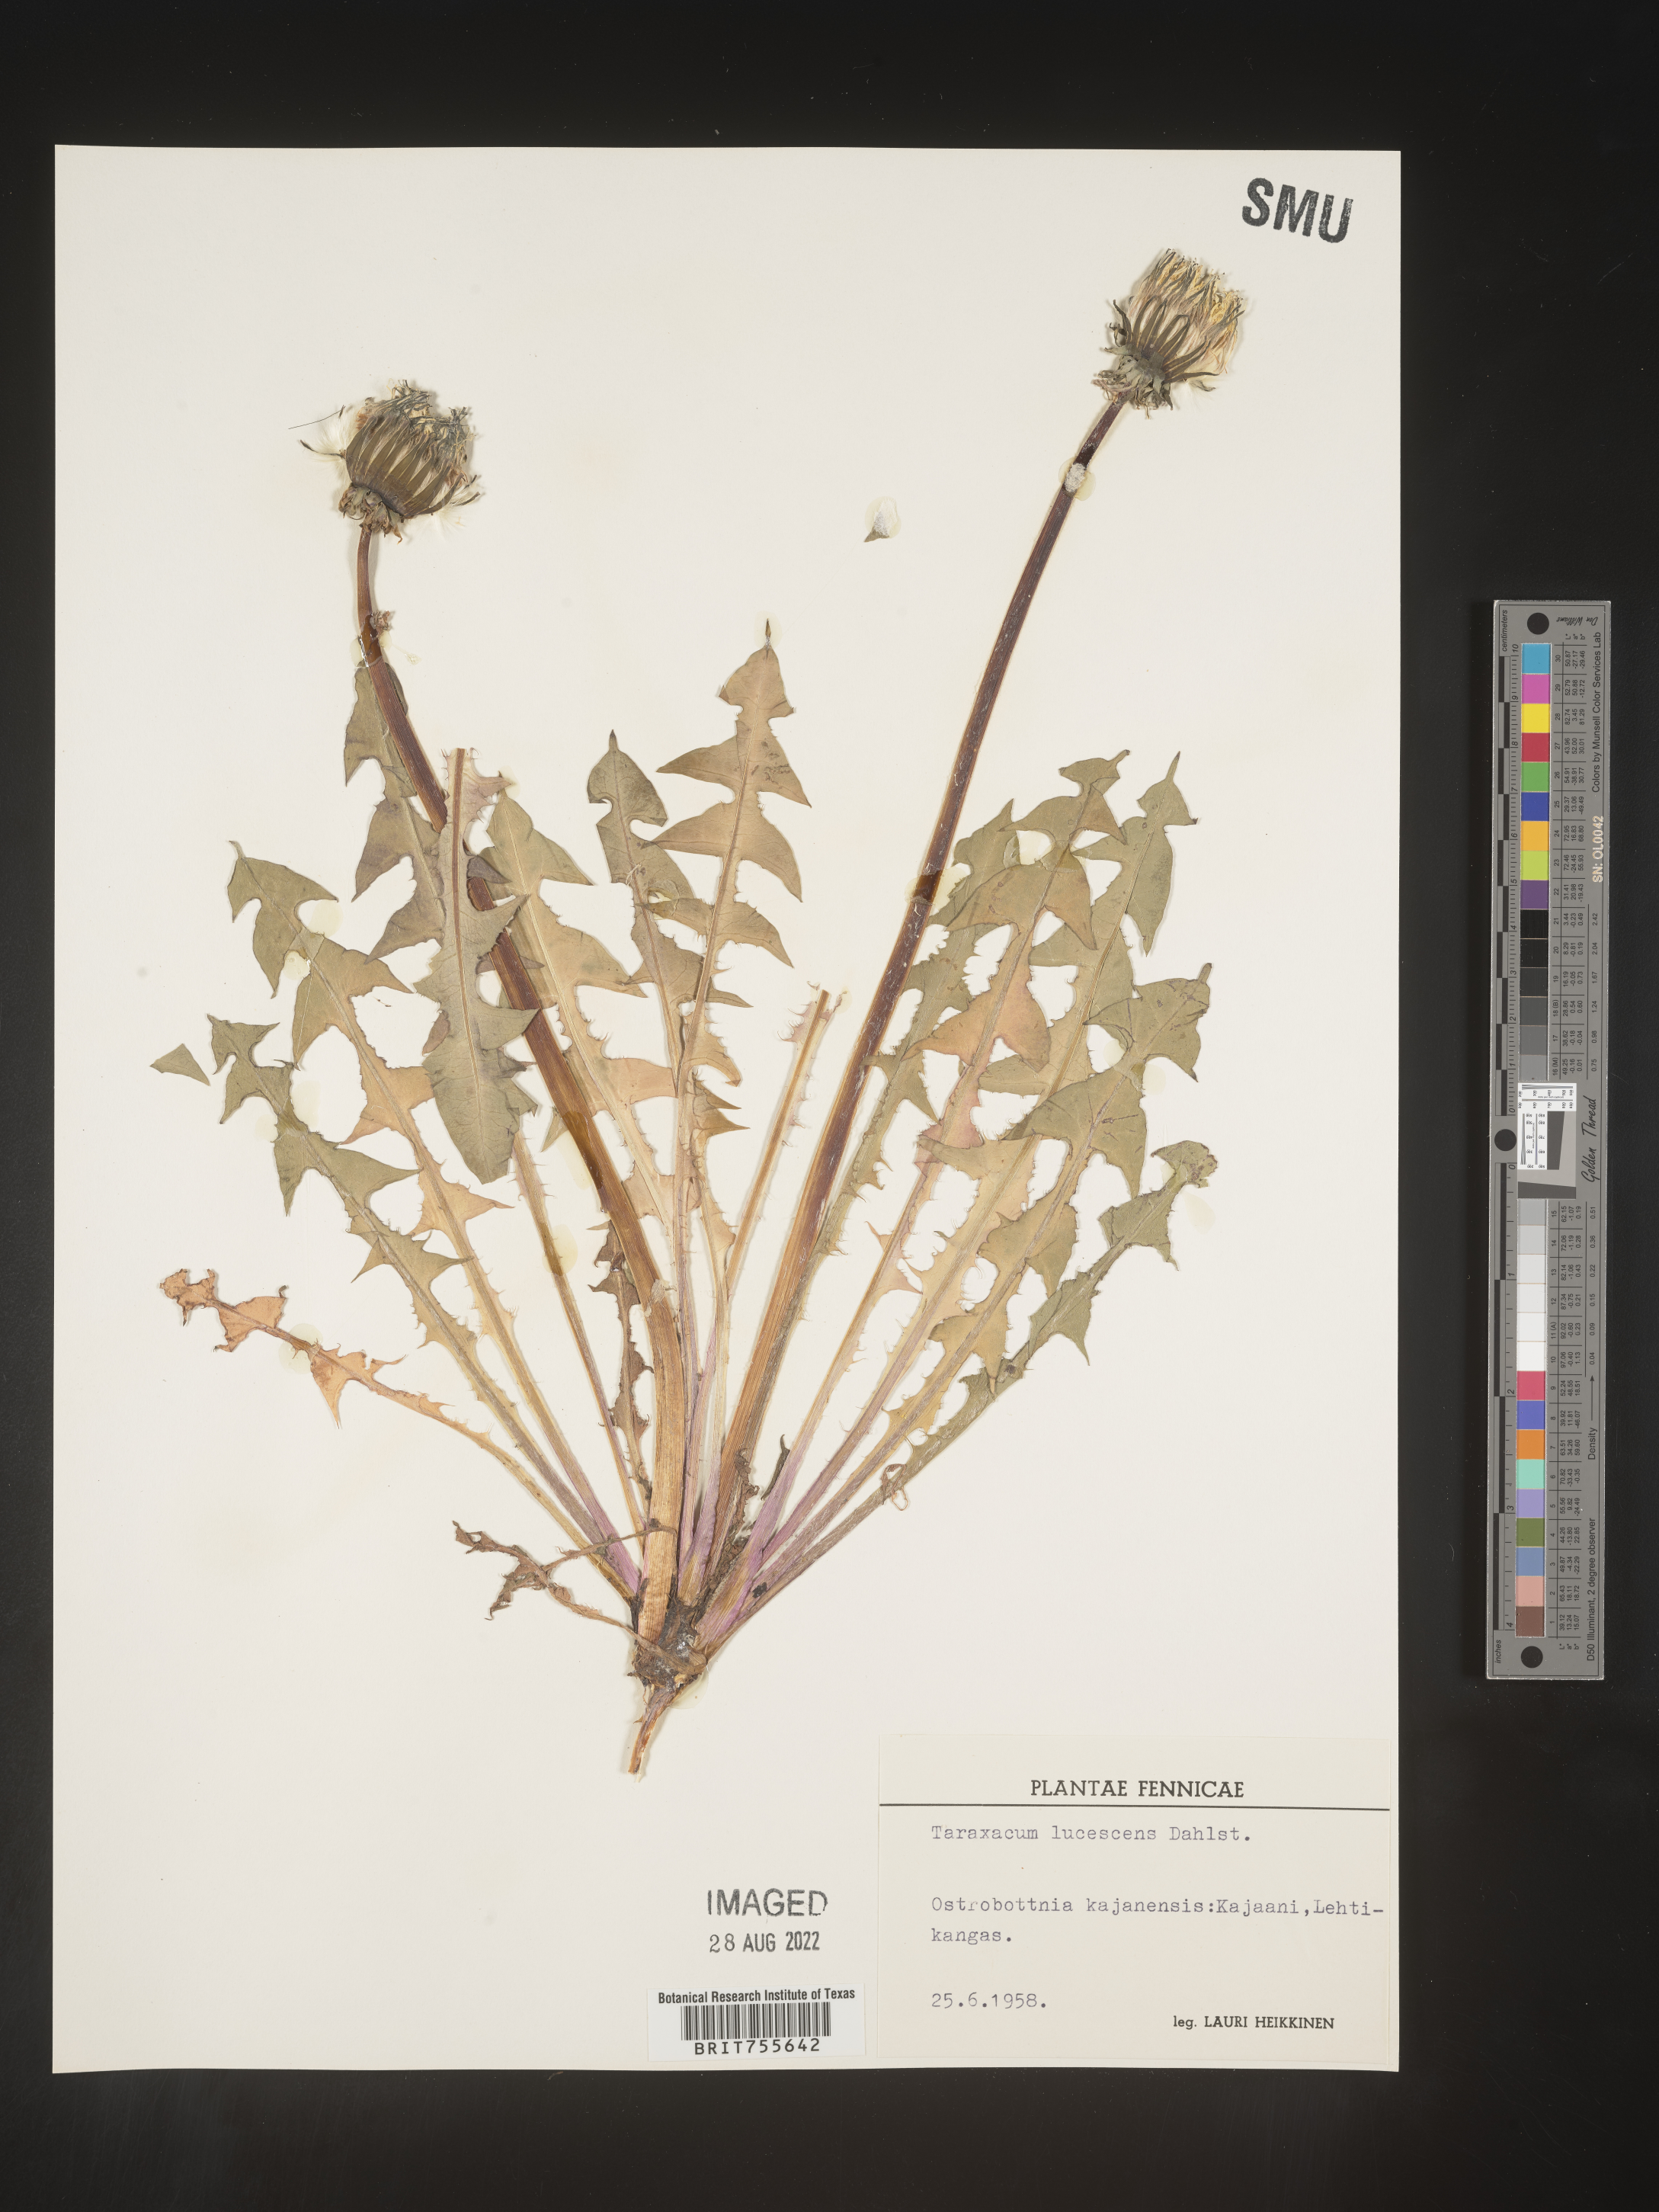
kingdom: Plantae
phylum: Tracheophyta
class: Magnoliopsida
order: Asterales
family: Asteraceae
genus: Taraxacum
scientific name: Taraxacum
